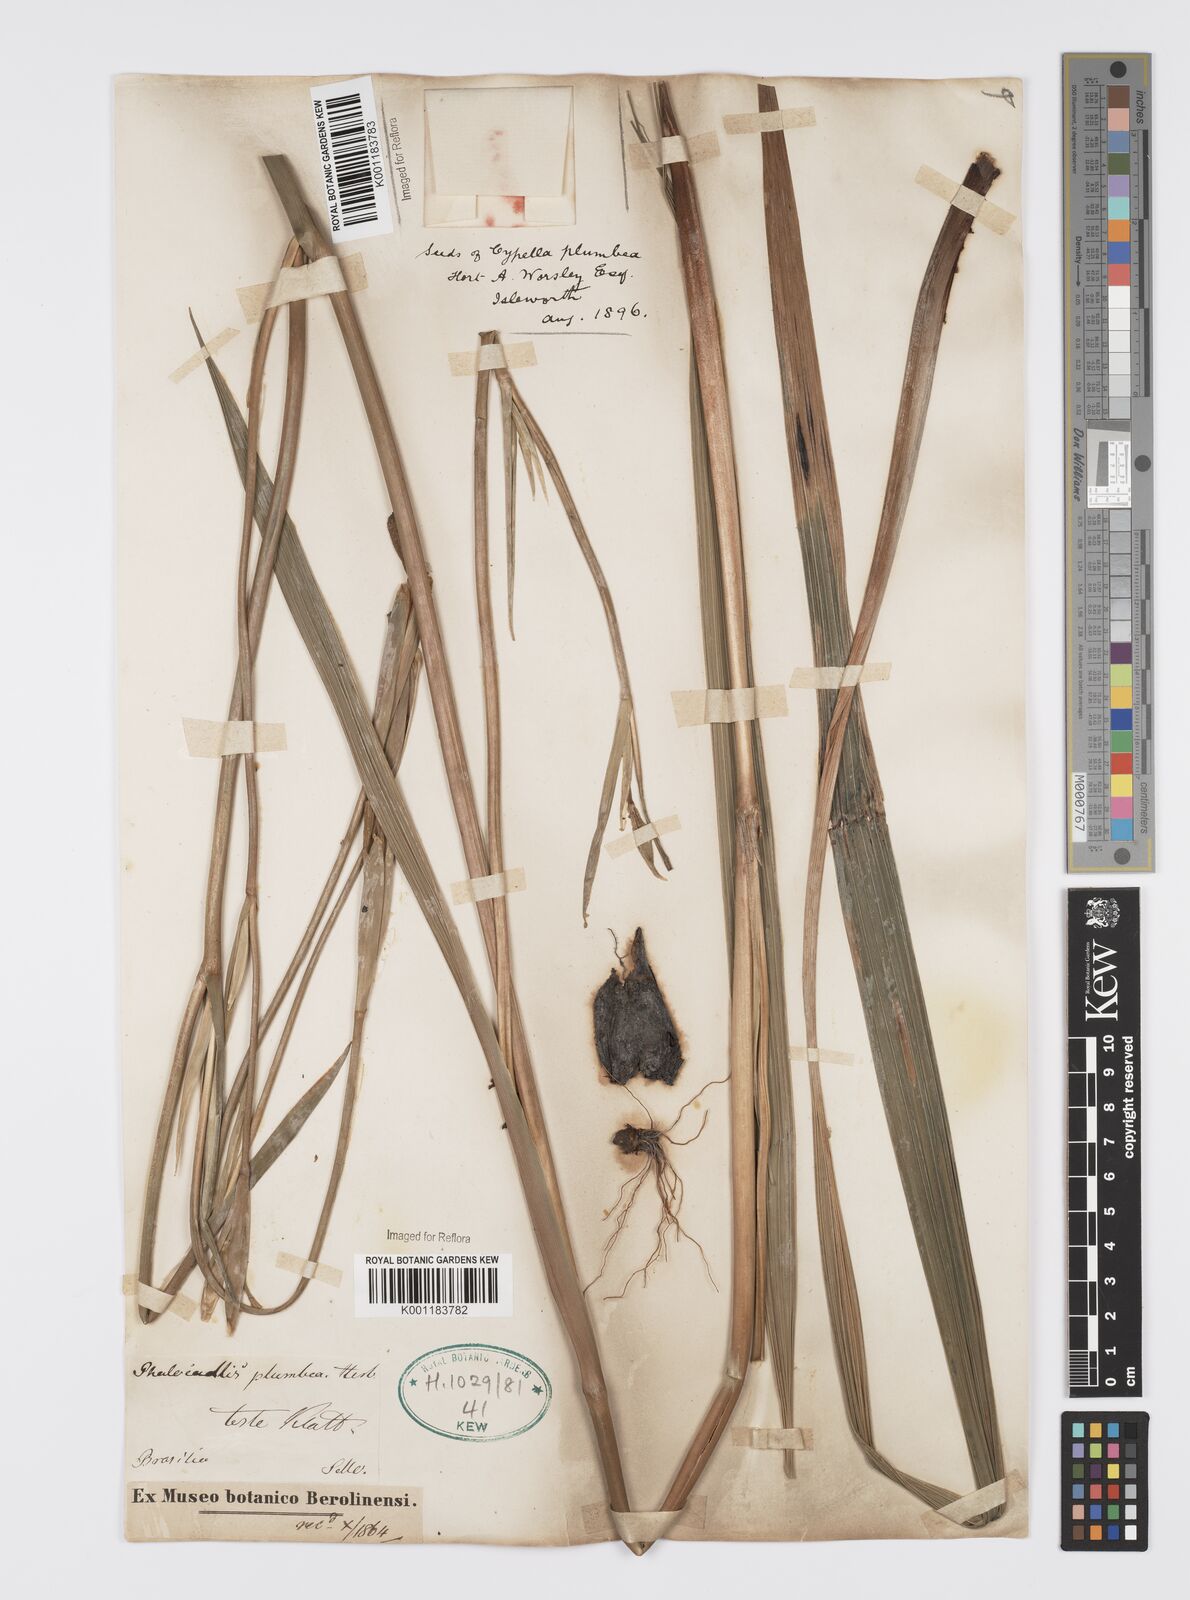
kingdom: Plantae
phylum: Tracheophyta
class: Liliopsida
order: Asparagales
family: Iridaceae
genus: Phalocallis
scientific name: Phalocallis coelestis
